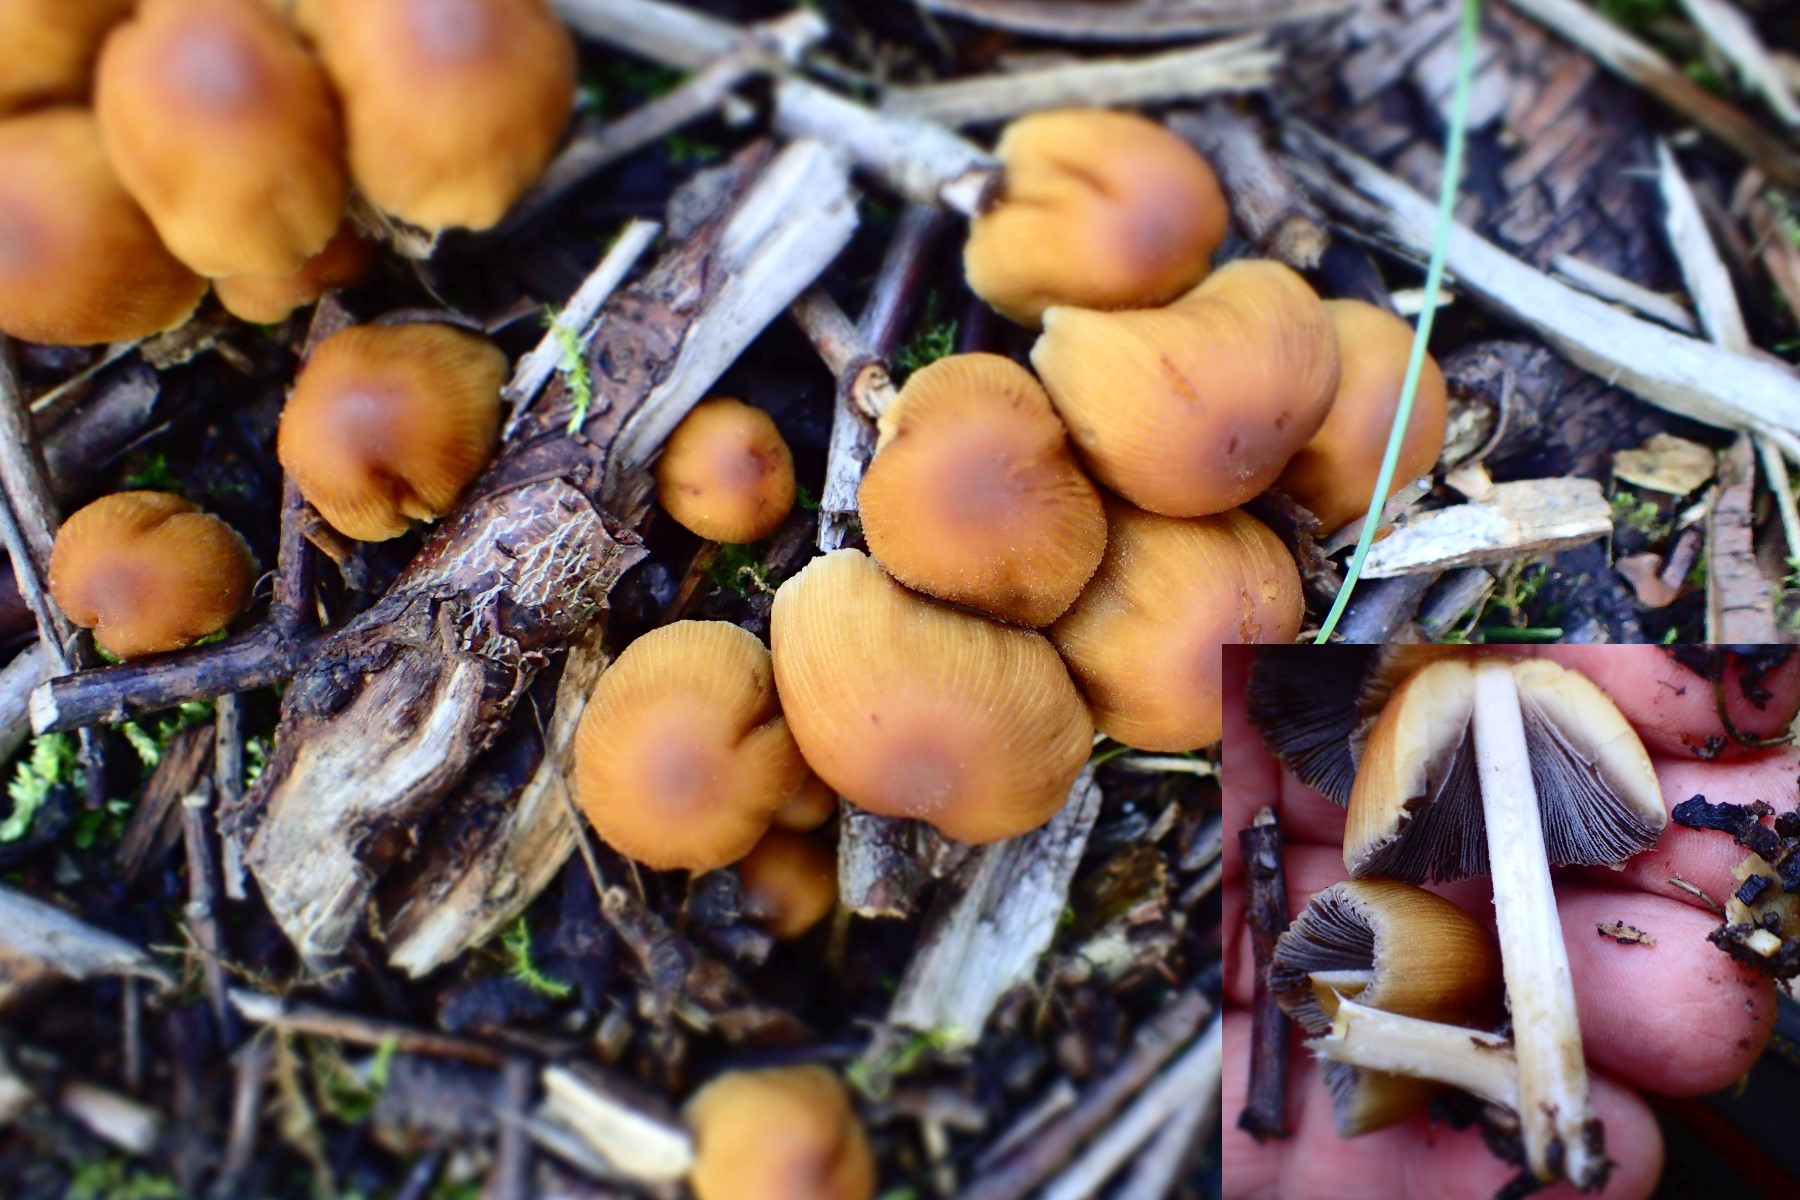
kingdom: Fungi
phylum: Basidiomycota
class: Agaricomycetes
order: Agaricales
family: Psathyrellaceae
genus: Coprinellus
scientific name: Coprinellus micaceus
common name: glimmer-blækhat
